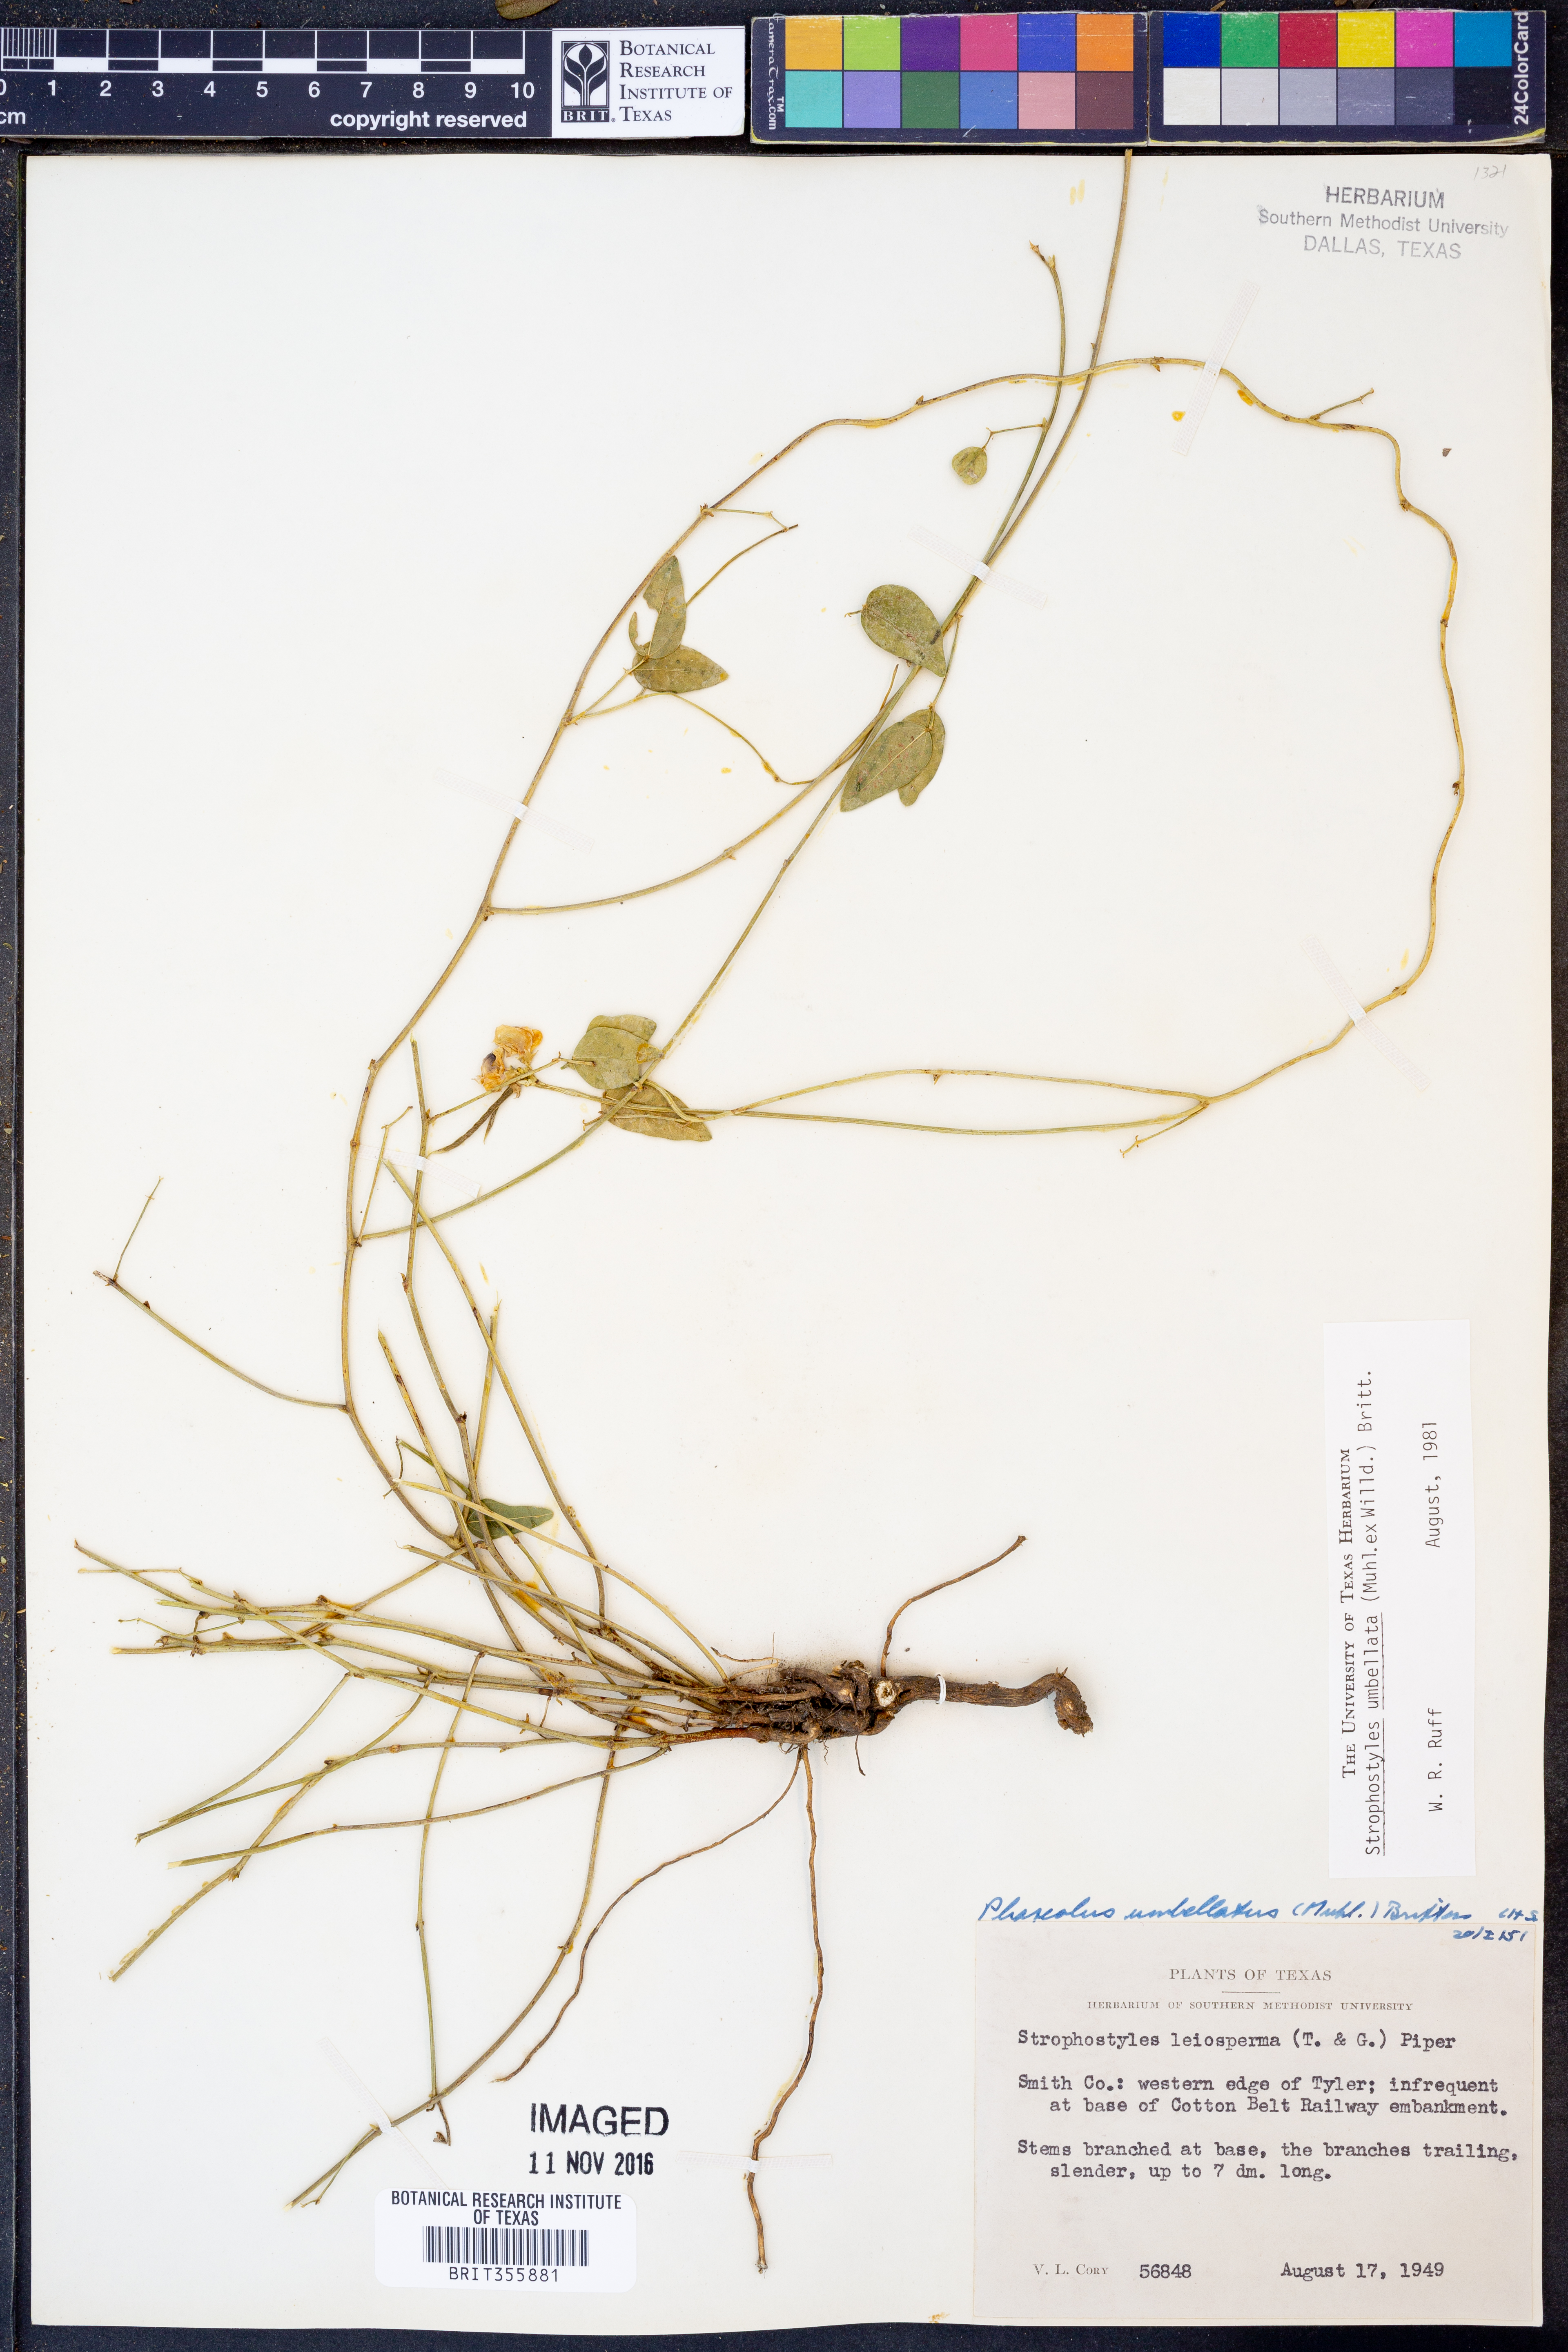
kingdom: Plantae
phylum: Tracheophyta
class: Magnoliopsida
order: Fabales
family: Fabaceae
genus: Strophostyles
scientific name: Strophostyles umbellata
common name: Perennial wild bean
